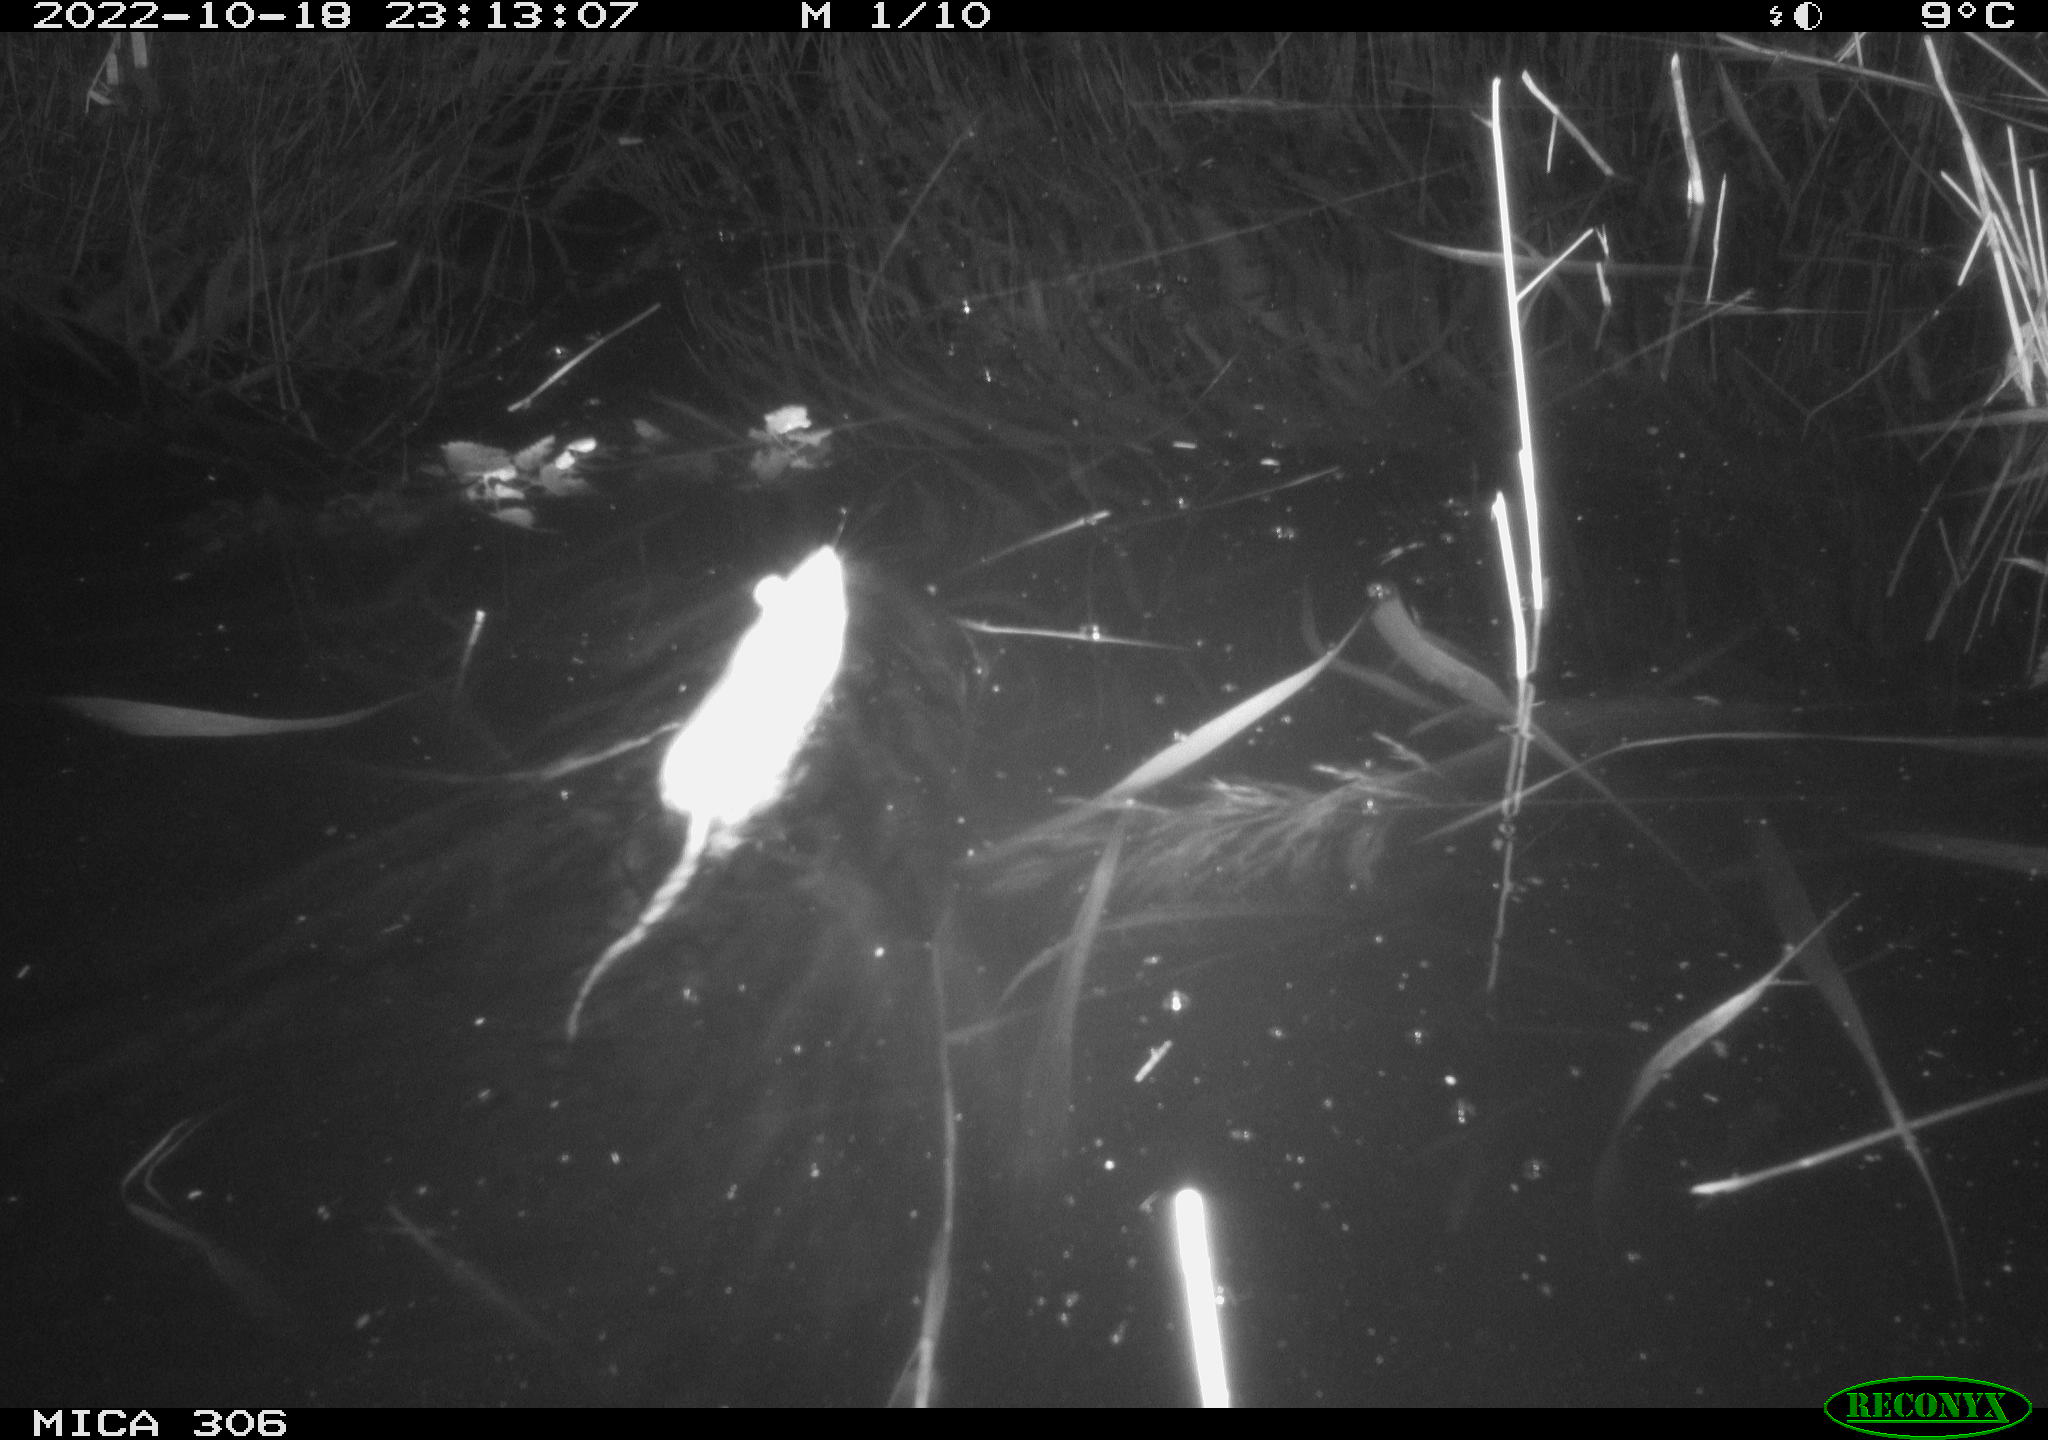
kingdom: Animalia
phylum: Chordata
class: Mammalia
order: Rodentia
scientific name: Rodentia
